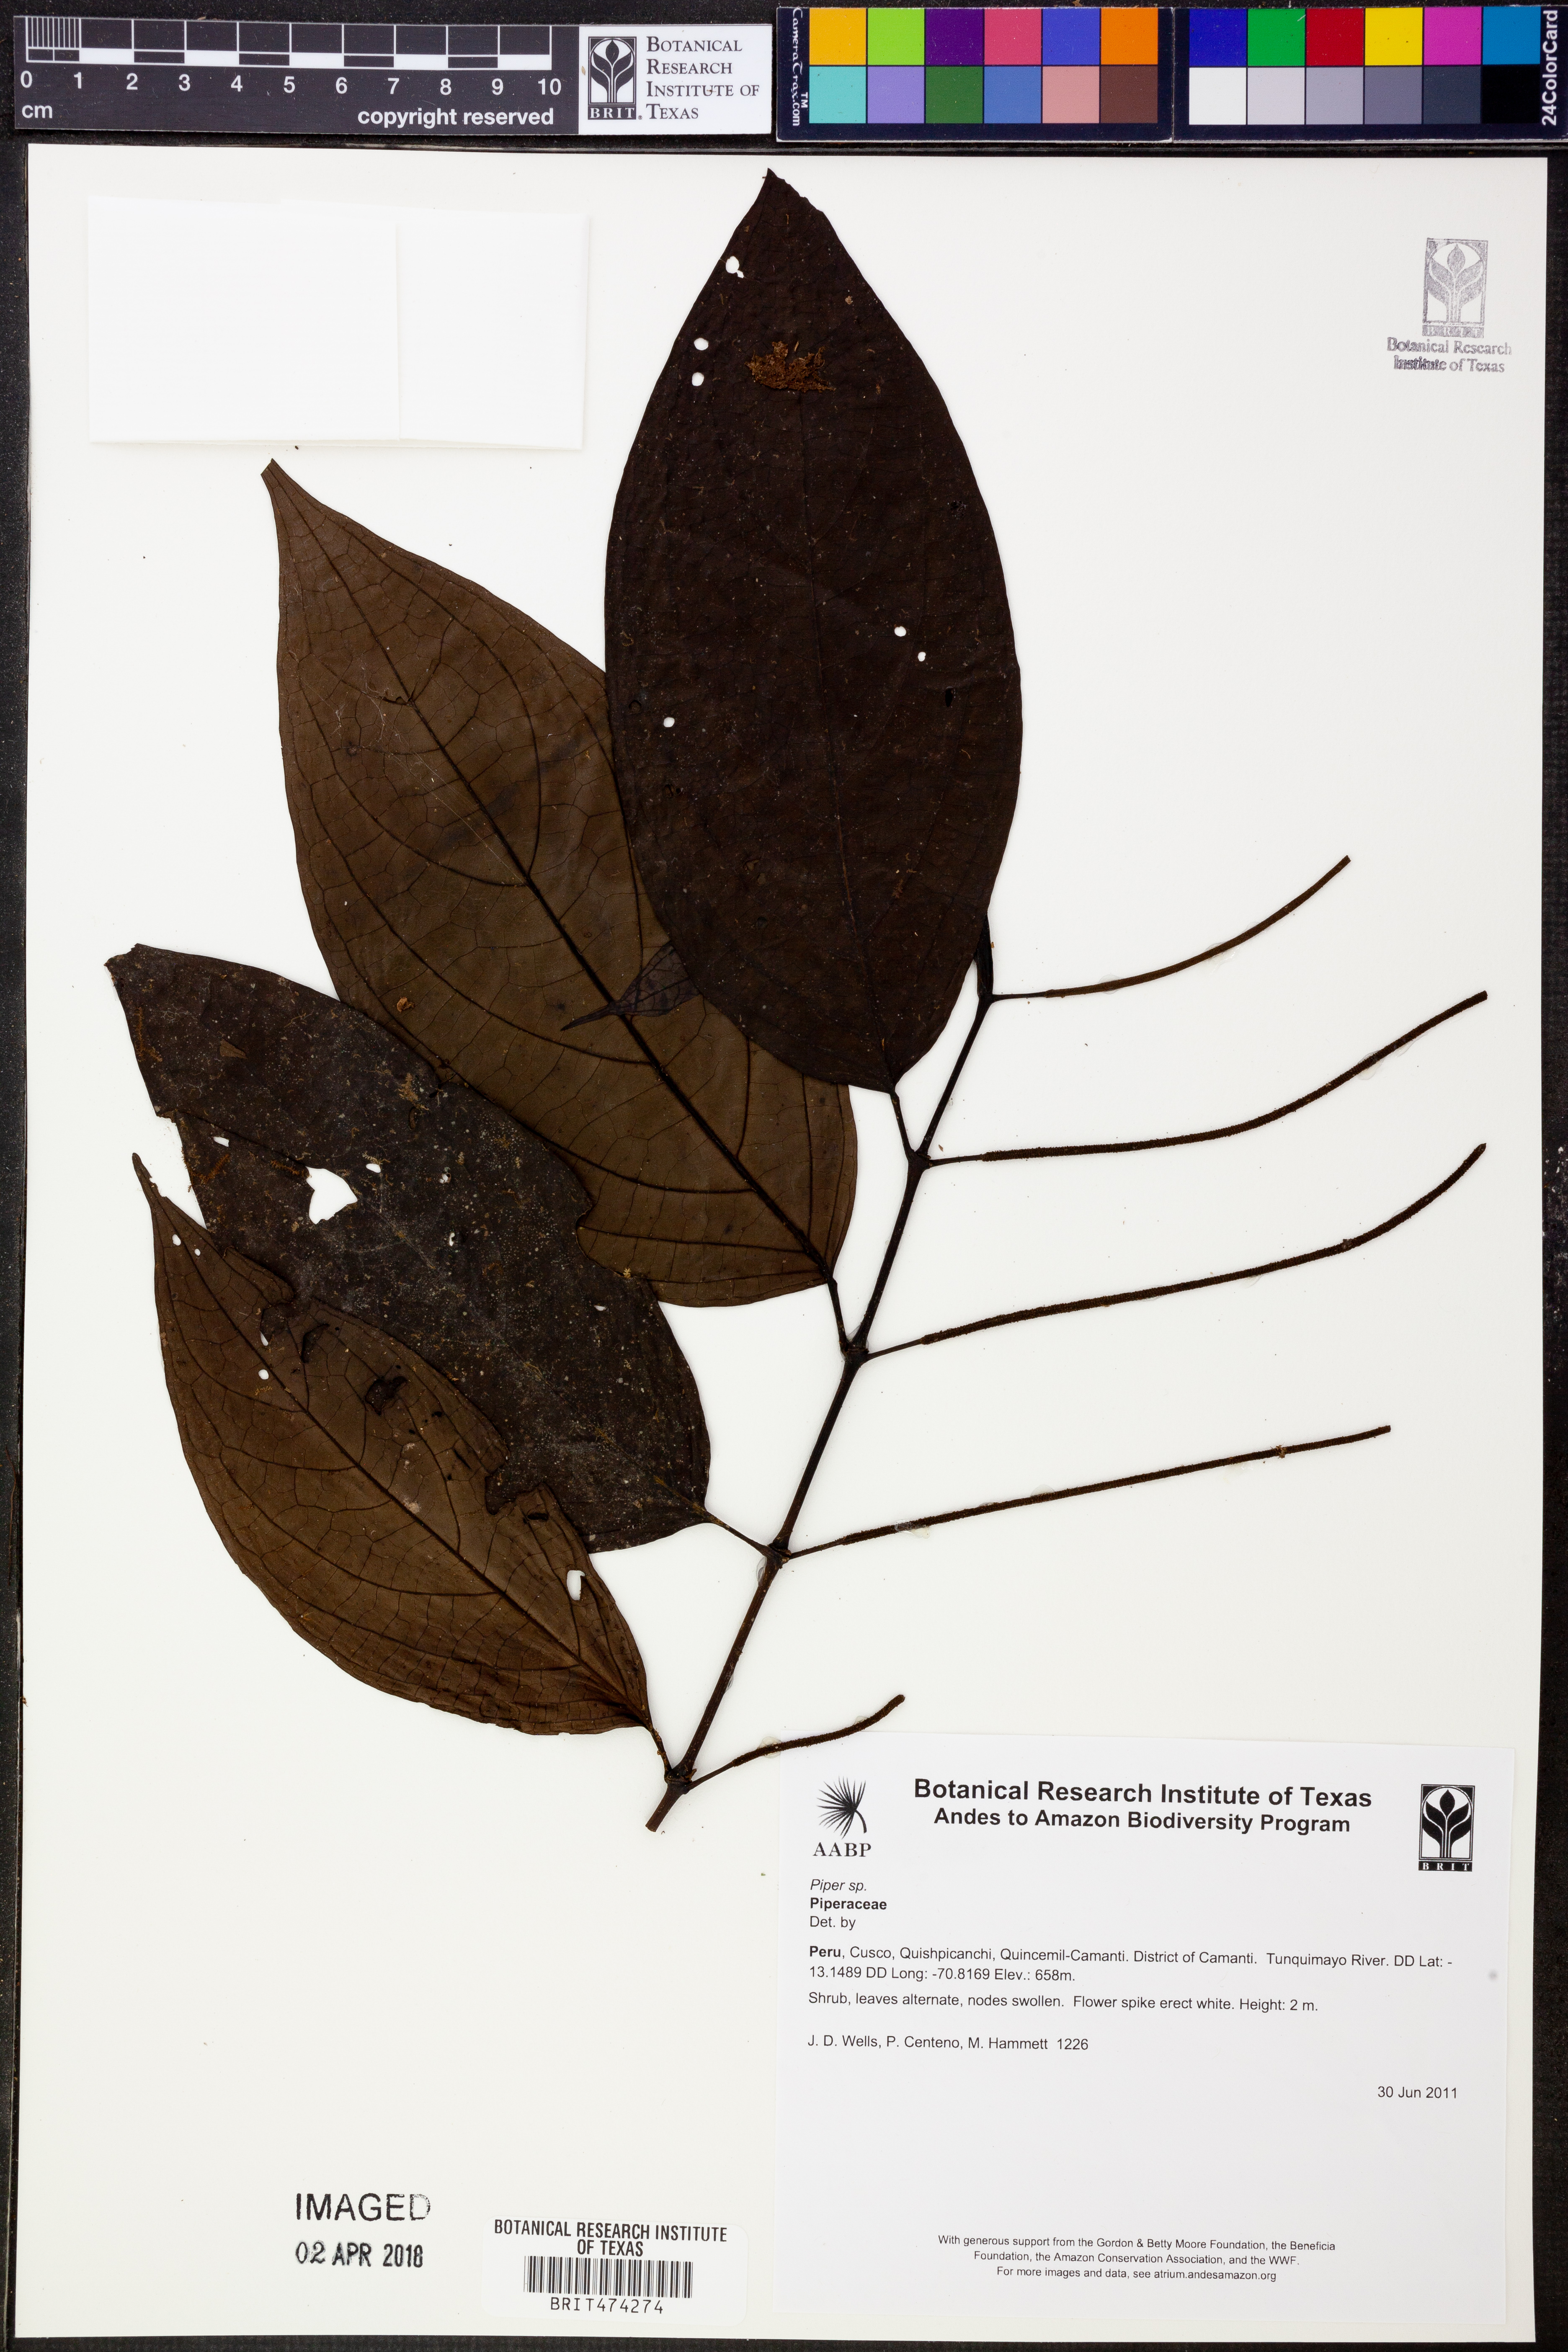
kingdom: Plantae
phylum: Tracheophyta
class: Magnoliopsida
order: Piperales
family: Piperaceae
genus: Piper
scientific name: Piper
